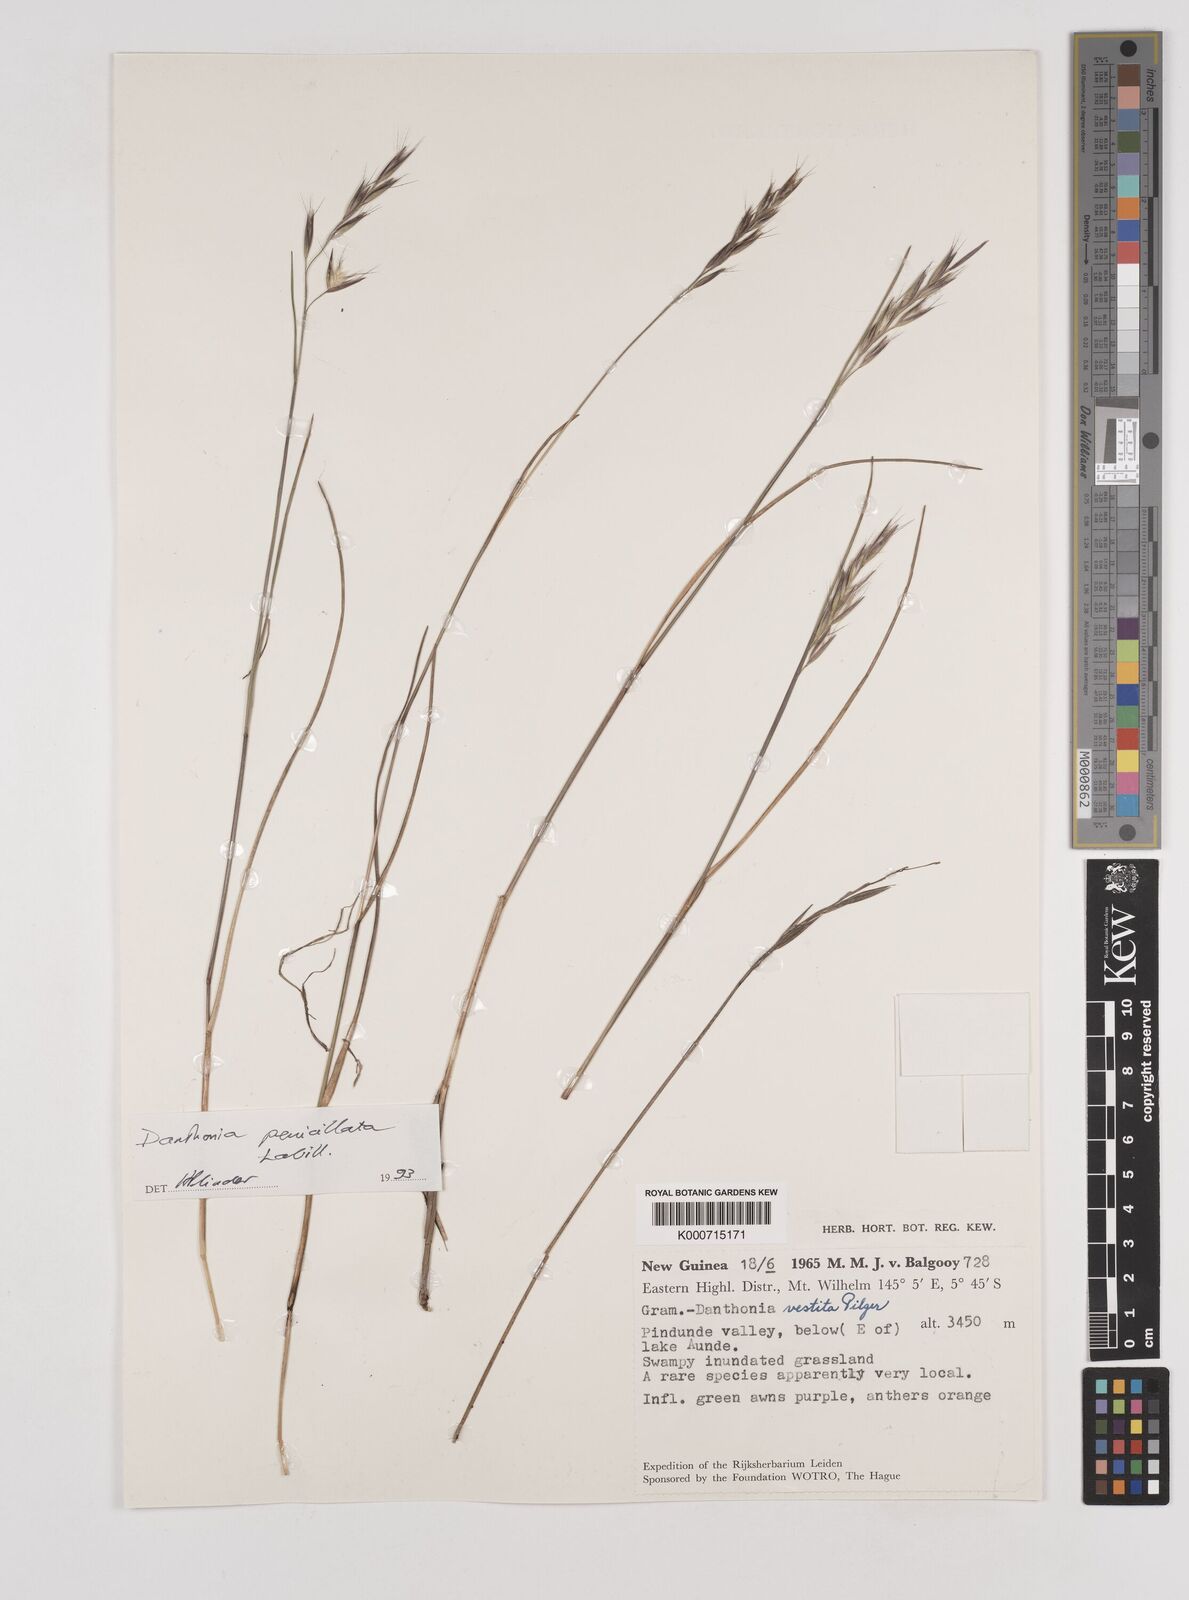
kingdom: Plantae
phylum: Tracheophyta
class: Liliopsida
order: Poales
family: Poaceae
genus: Rytidosperma
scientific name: Rytidosperma penicillatum
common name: Hairy wallaby grass
